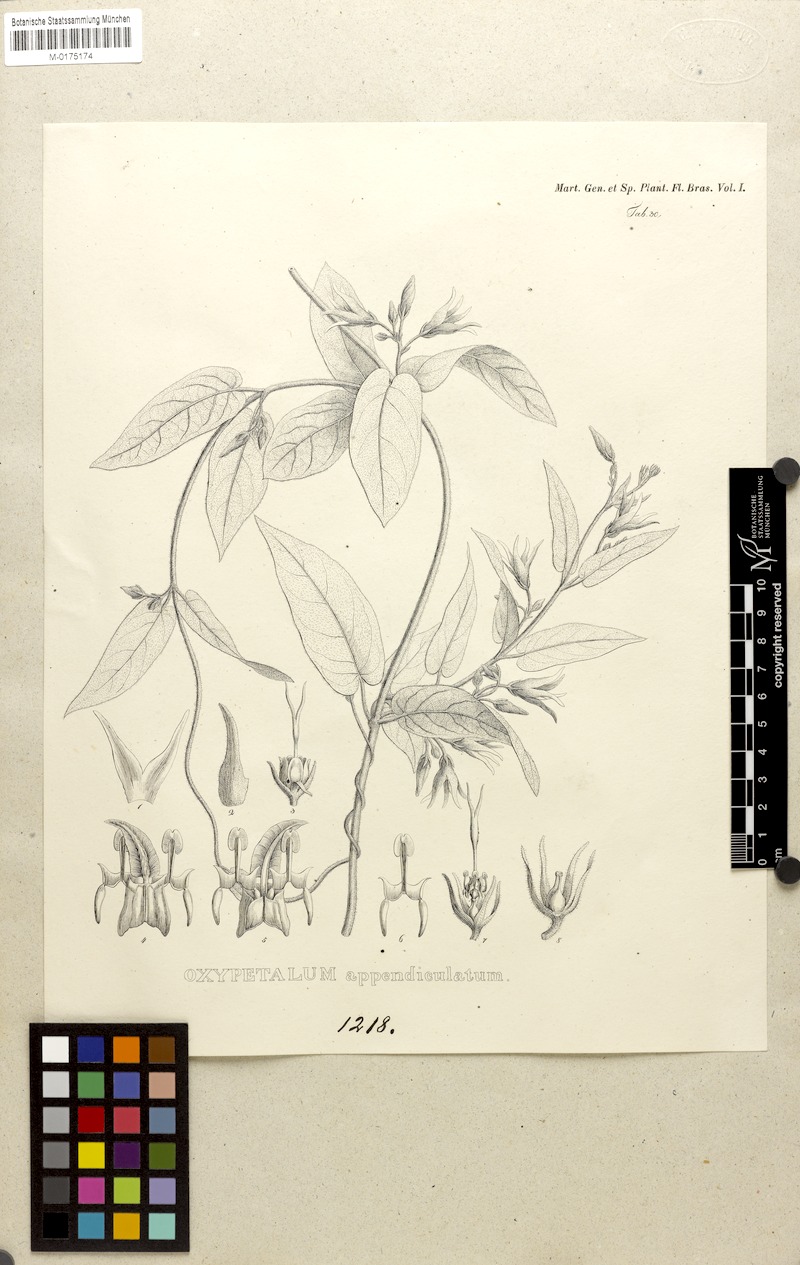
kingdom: Plantae
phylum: Tracheophyta
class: Magnoliopsida
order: Gentianales
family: Apocynaceae
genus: Oxypetalum
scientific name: Oxypetalum appendiculatum
